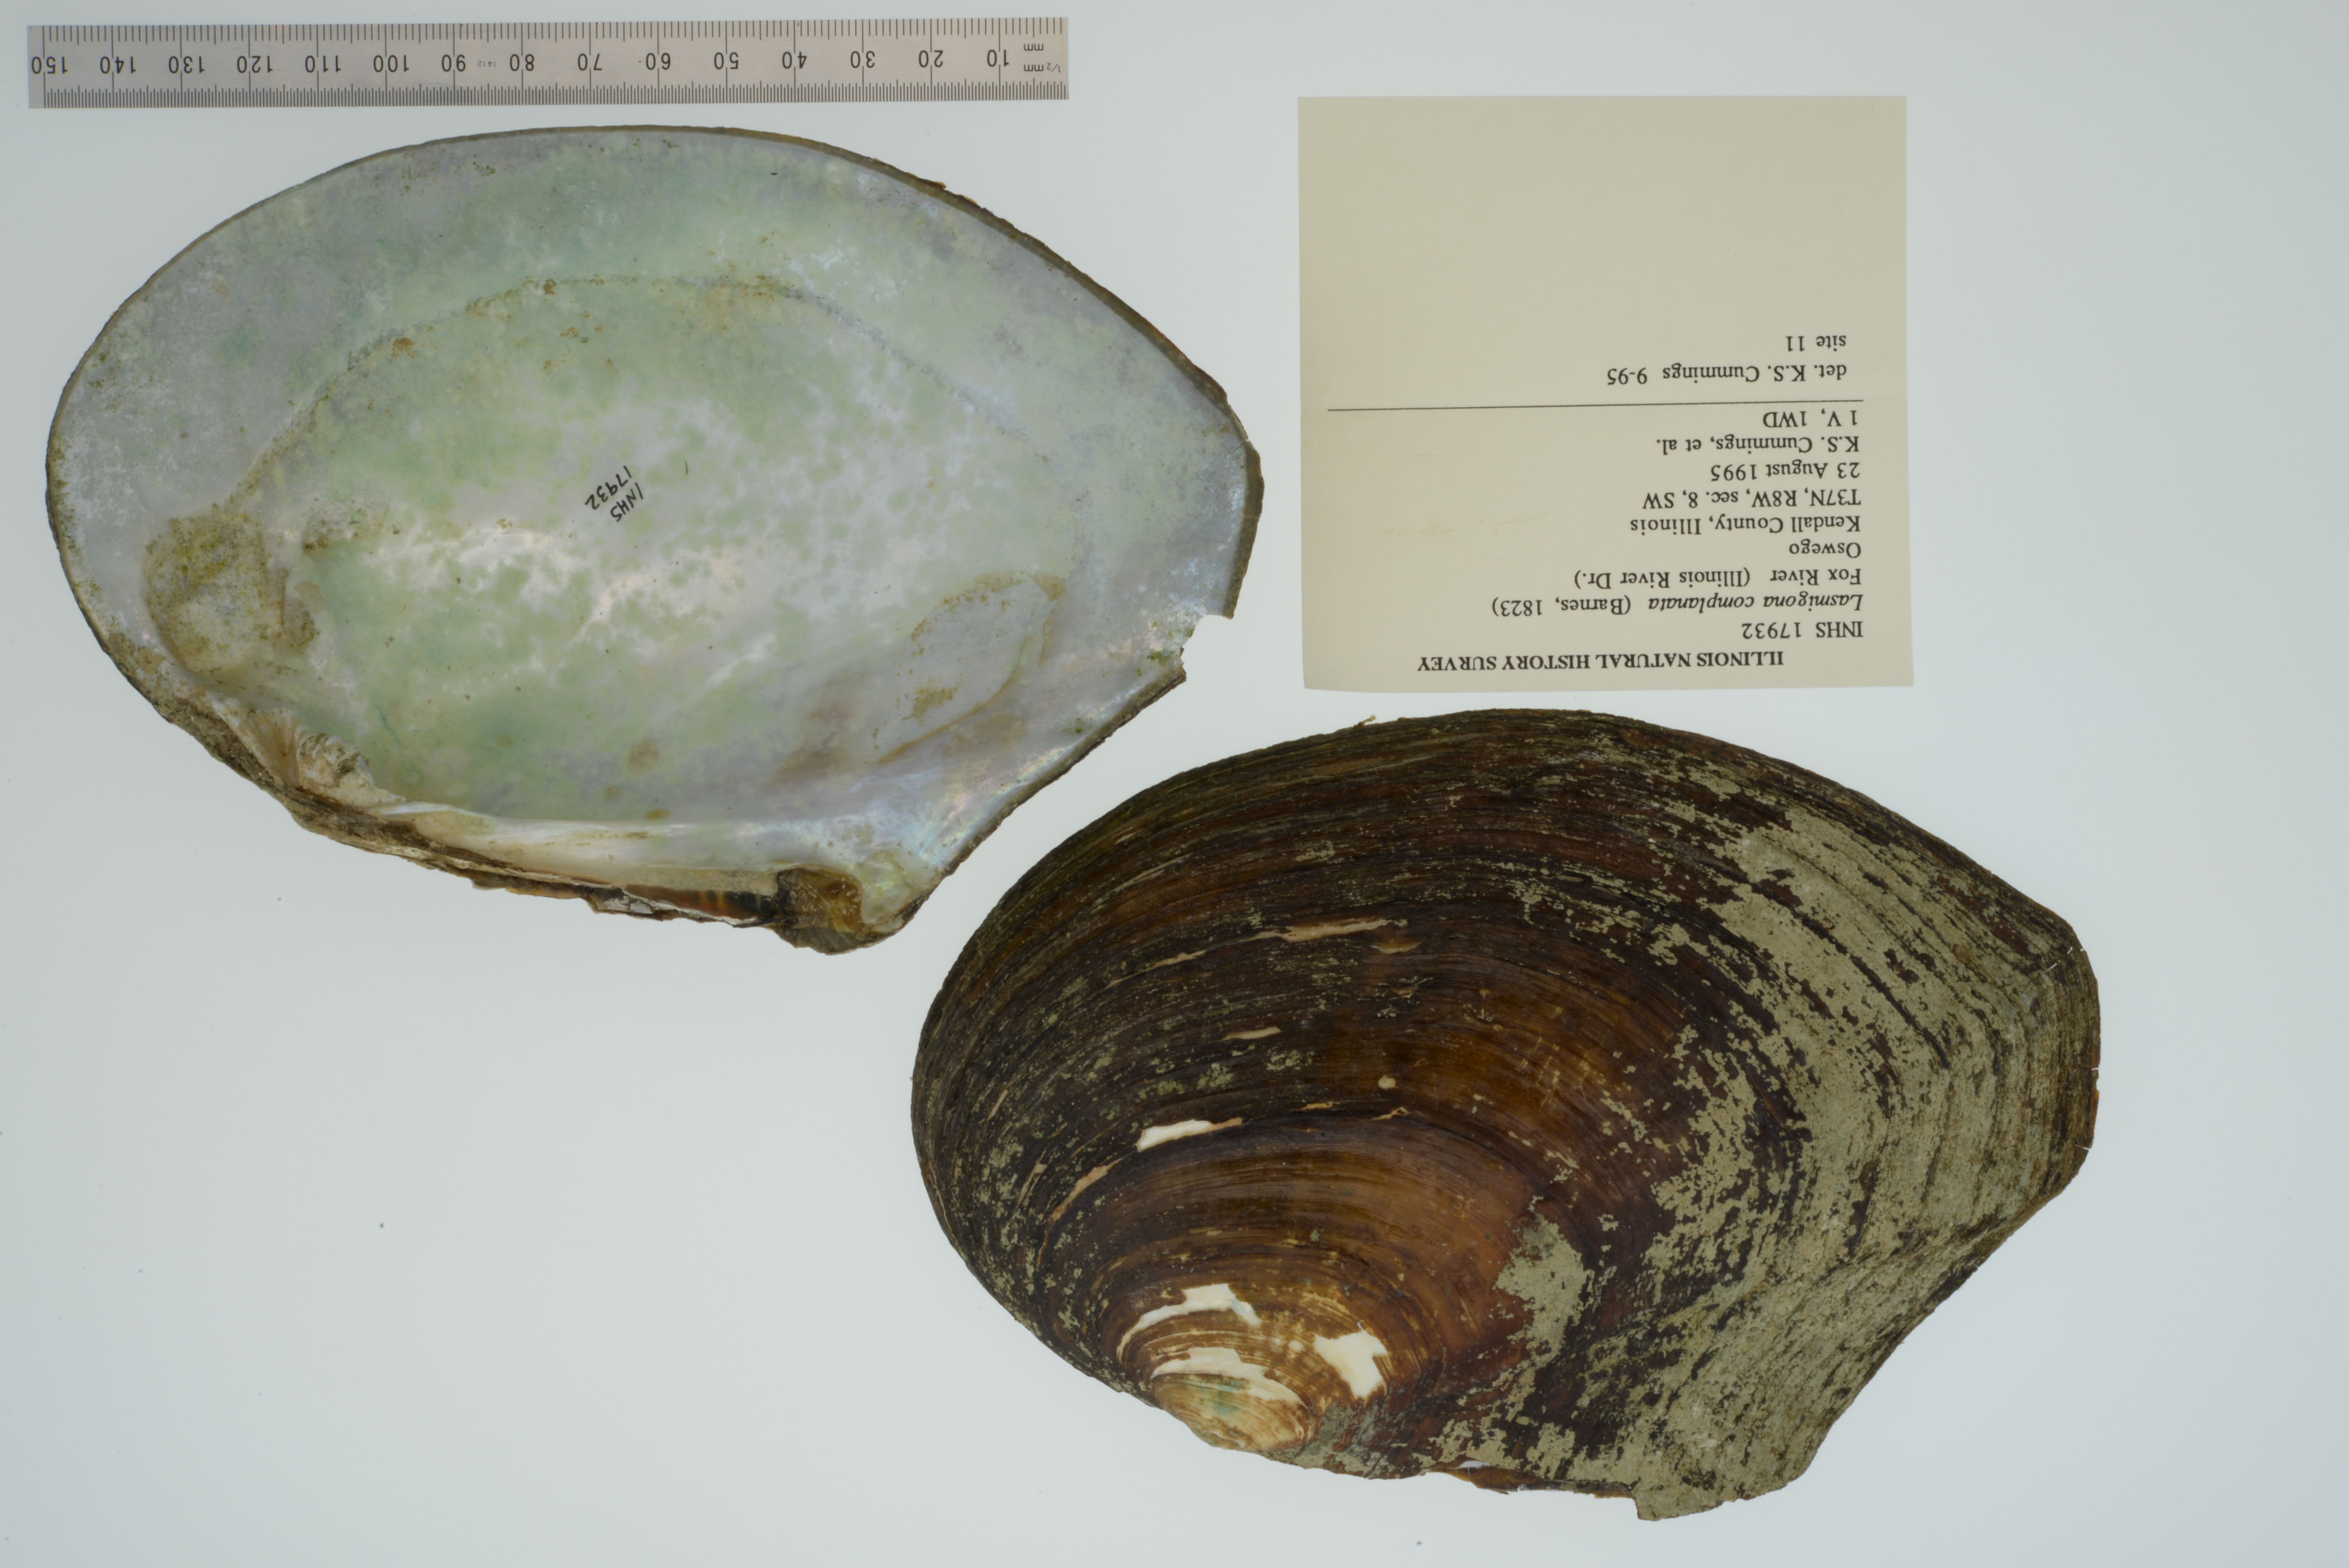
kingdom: Animalia
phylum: Mollusca
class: Bivalvia
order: Unionida
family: Unionidae
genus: Lasmigona
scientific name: Lasmigona complanata
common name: White heelsplitter
